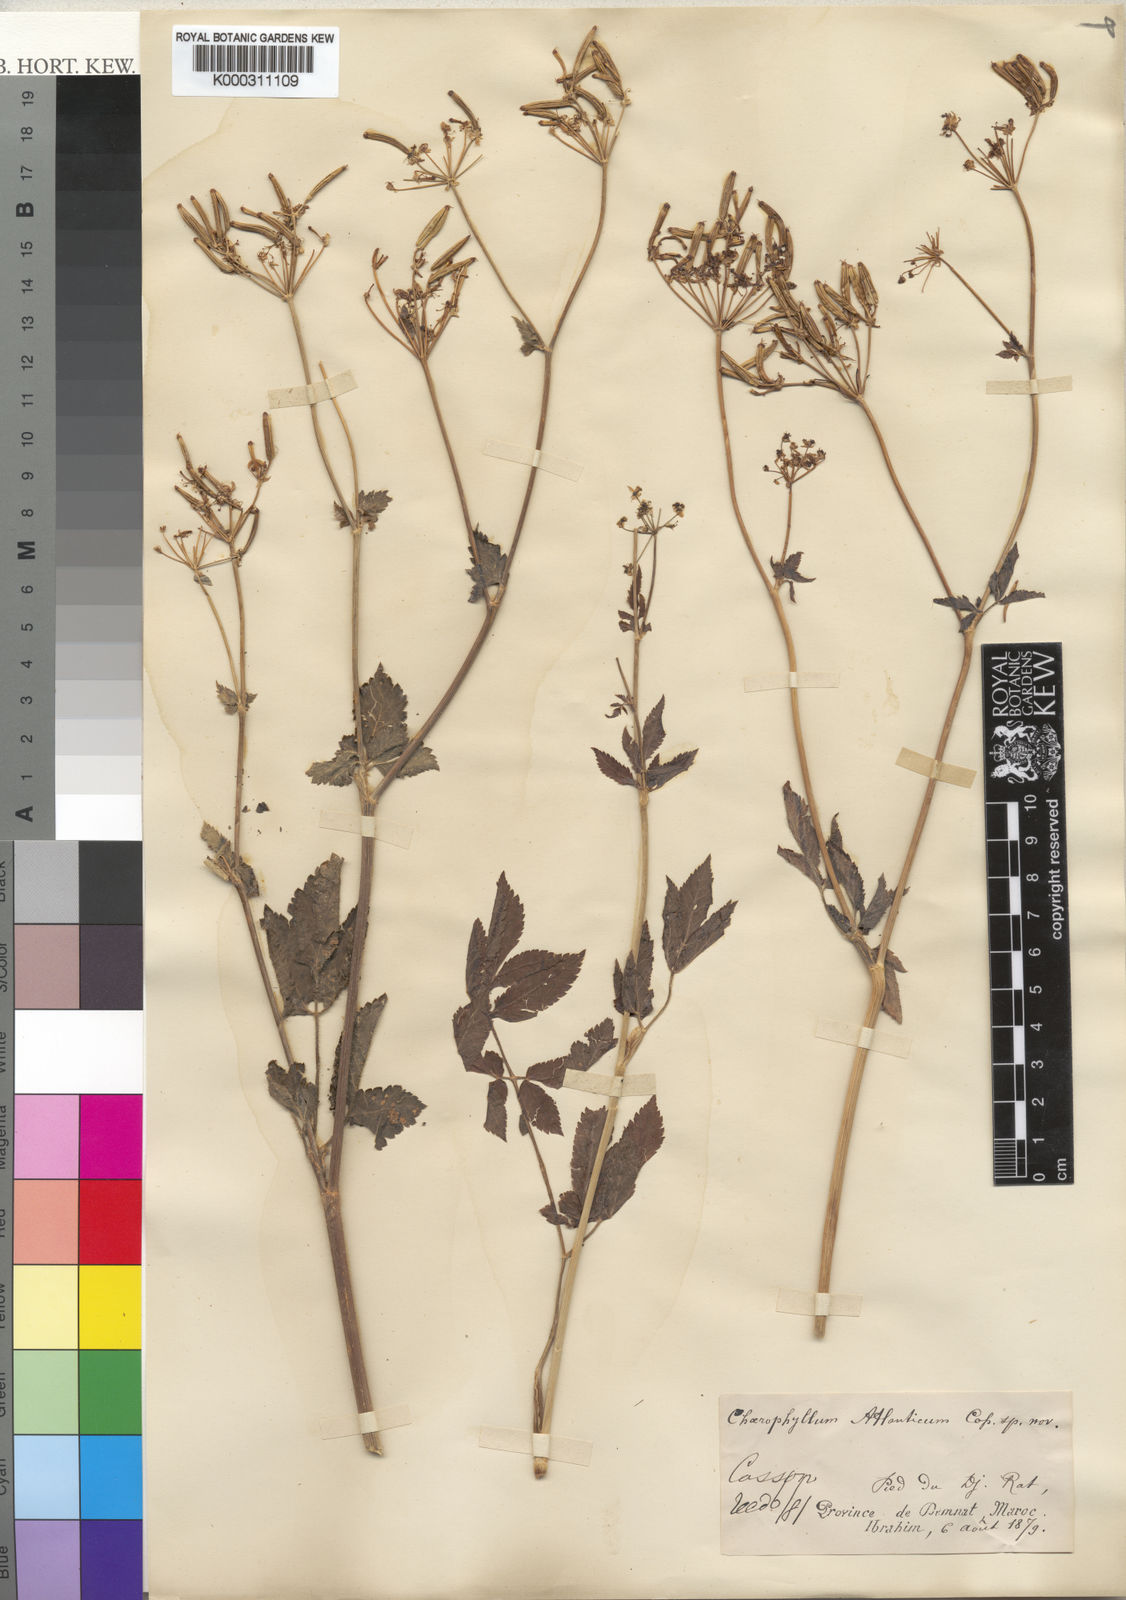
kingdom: Plantae
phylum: Tracheophyta
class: Magnoliopsida
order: Apiales
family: Apiaceae
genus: Chaerophyllum
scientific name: Chaerophyllum
